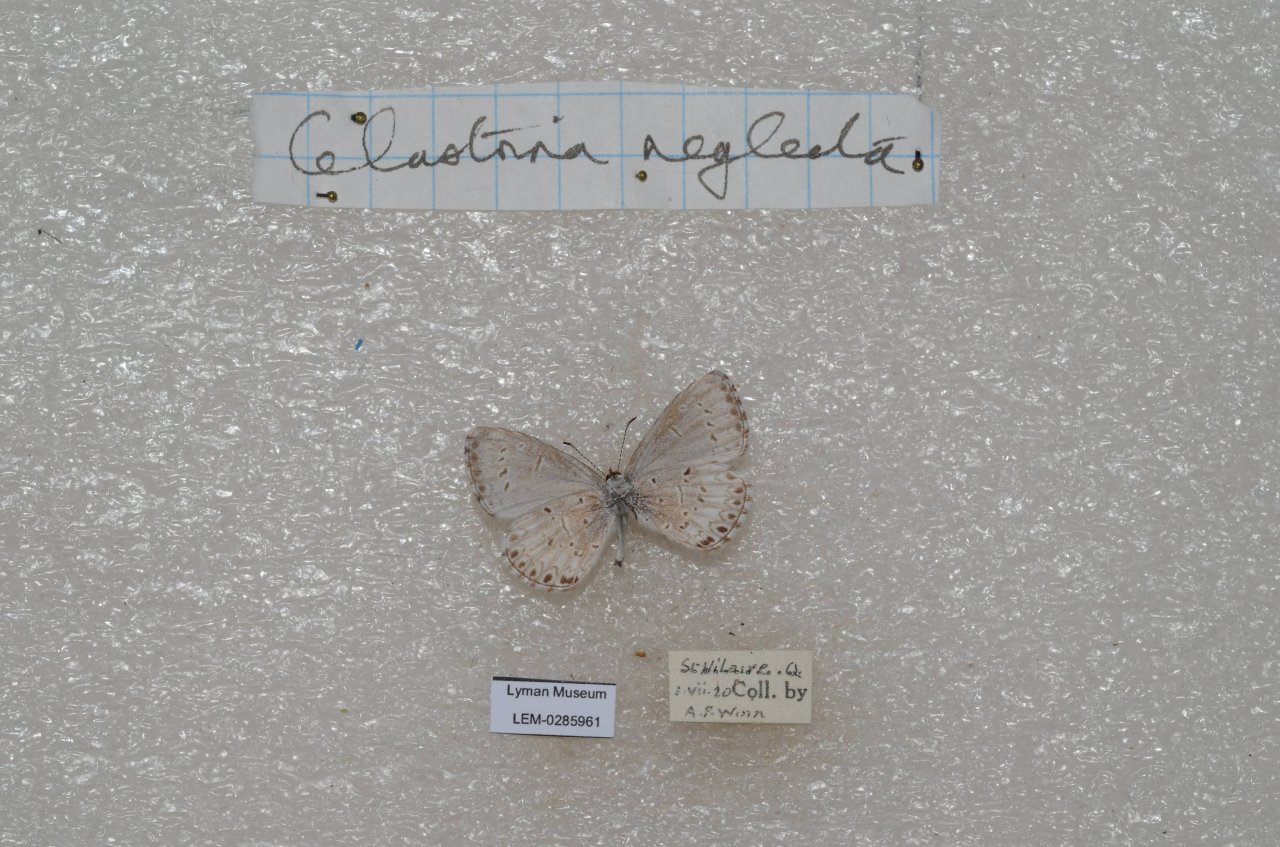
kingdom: Animalia
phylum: Arthropoda
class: Insecta
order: Lepidoptera
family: Lycaenidae
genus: Celastrina
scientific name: Celastrina lucia
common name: Northern Spring Azure
